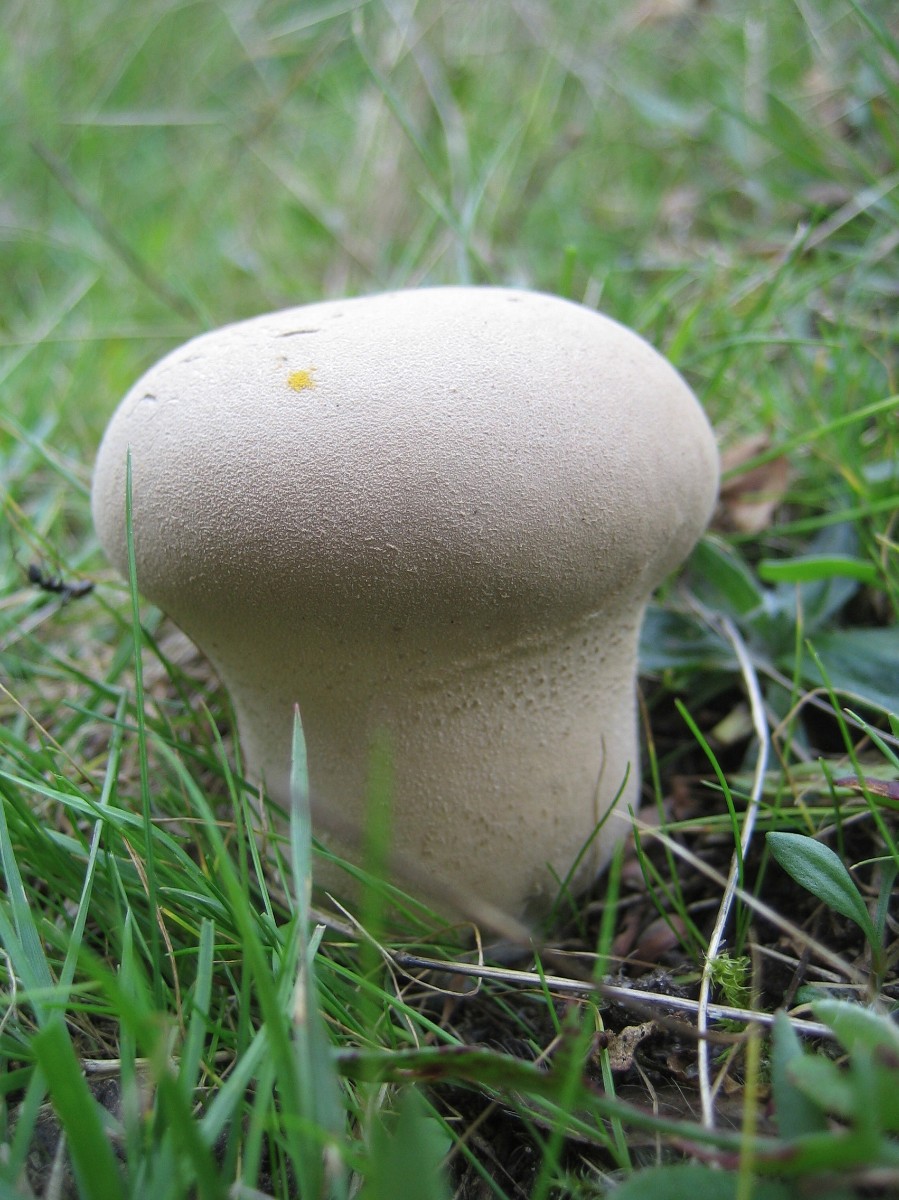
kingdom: Fungi
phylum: Basidiomycota
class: Agaricomycetes
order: Agaricales
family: Lycoperdaceae
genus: Lycoperdon
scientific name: Lycoperdon pratense
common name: flad støvbold
